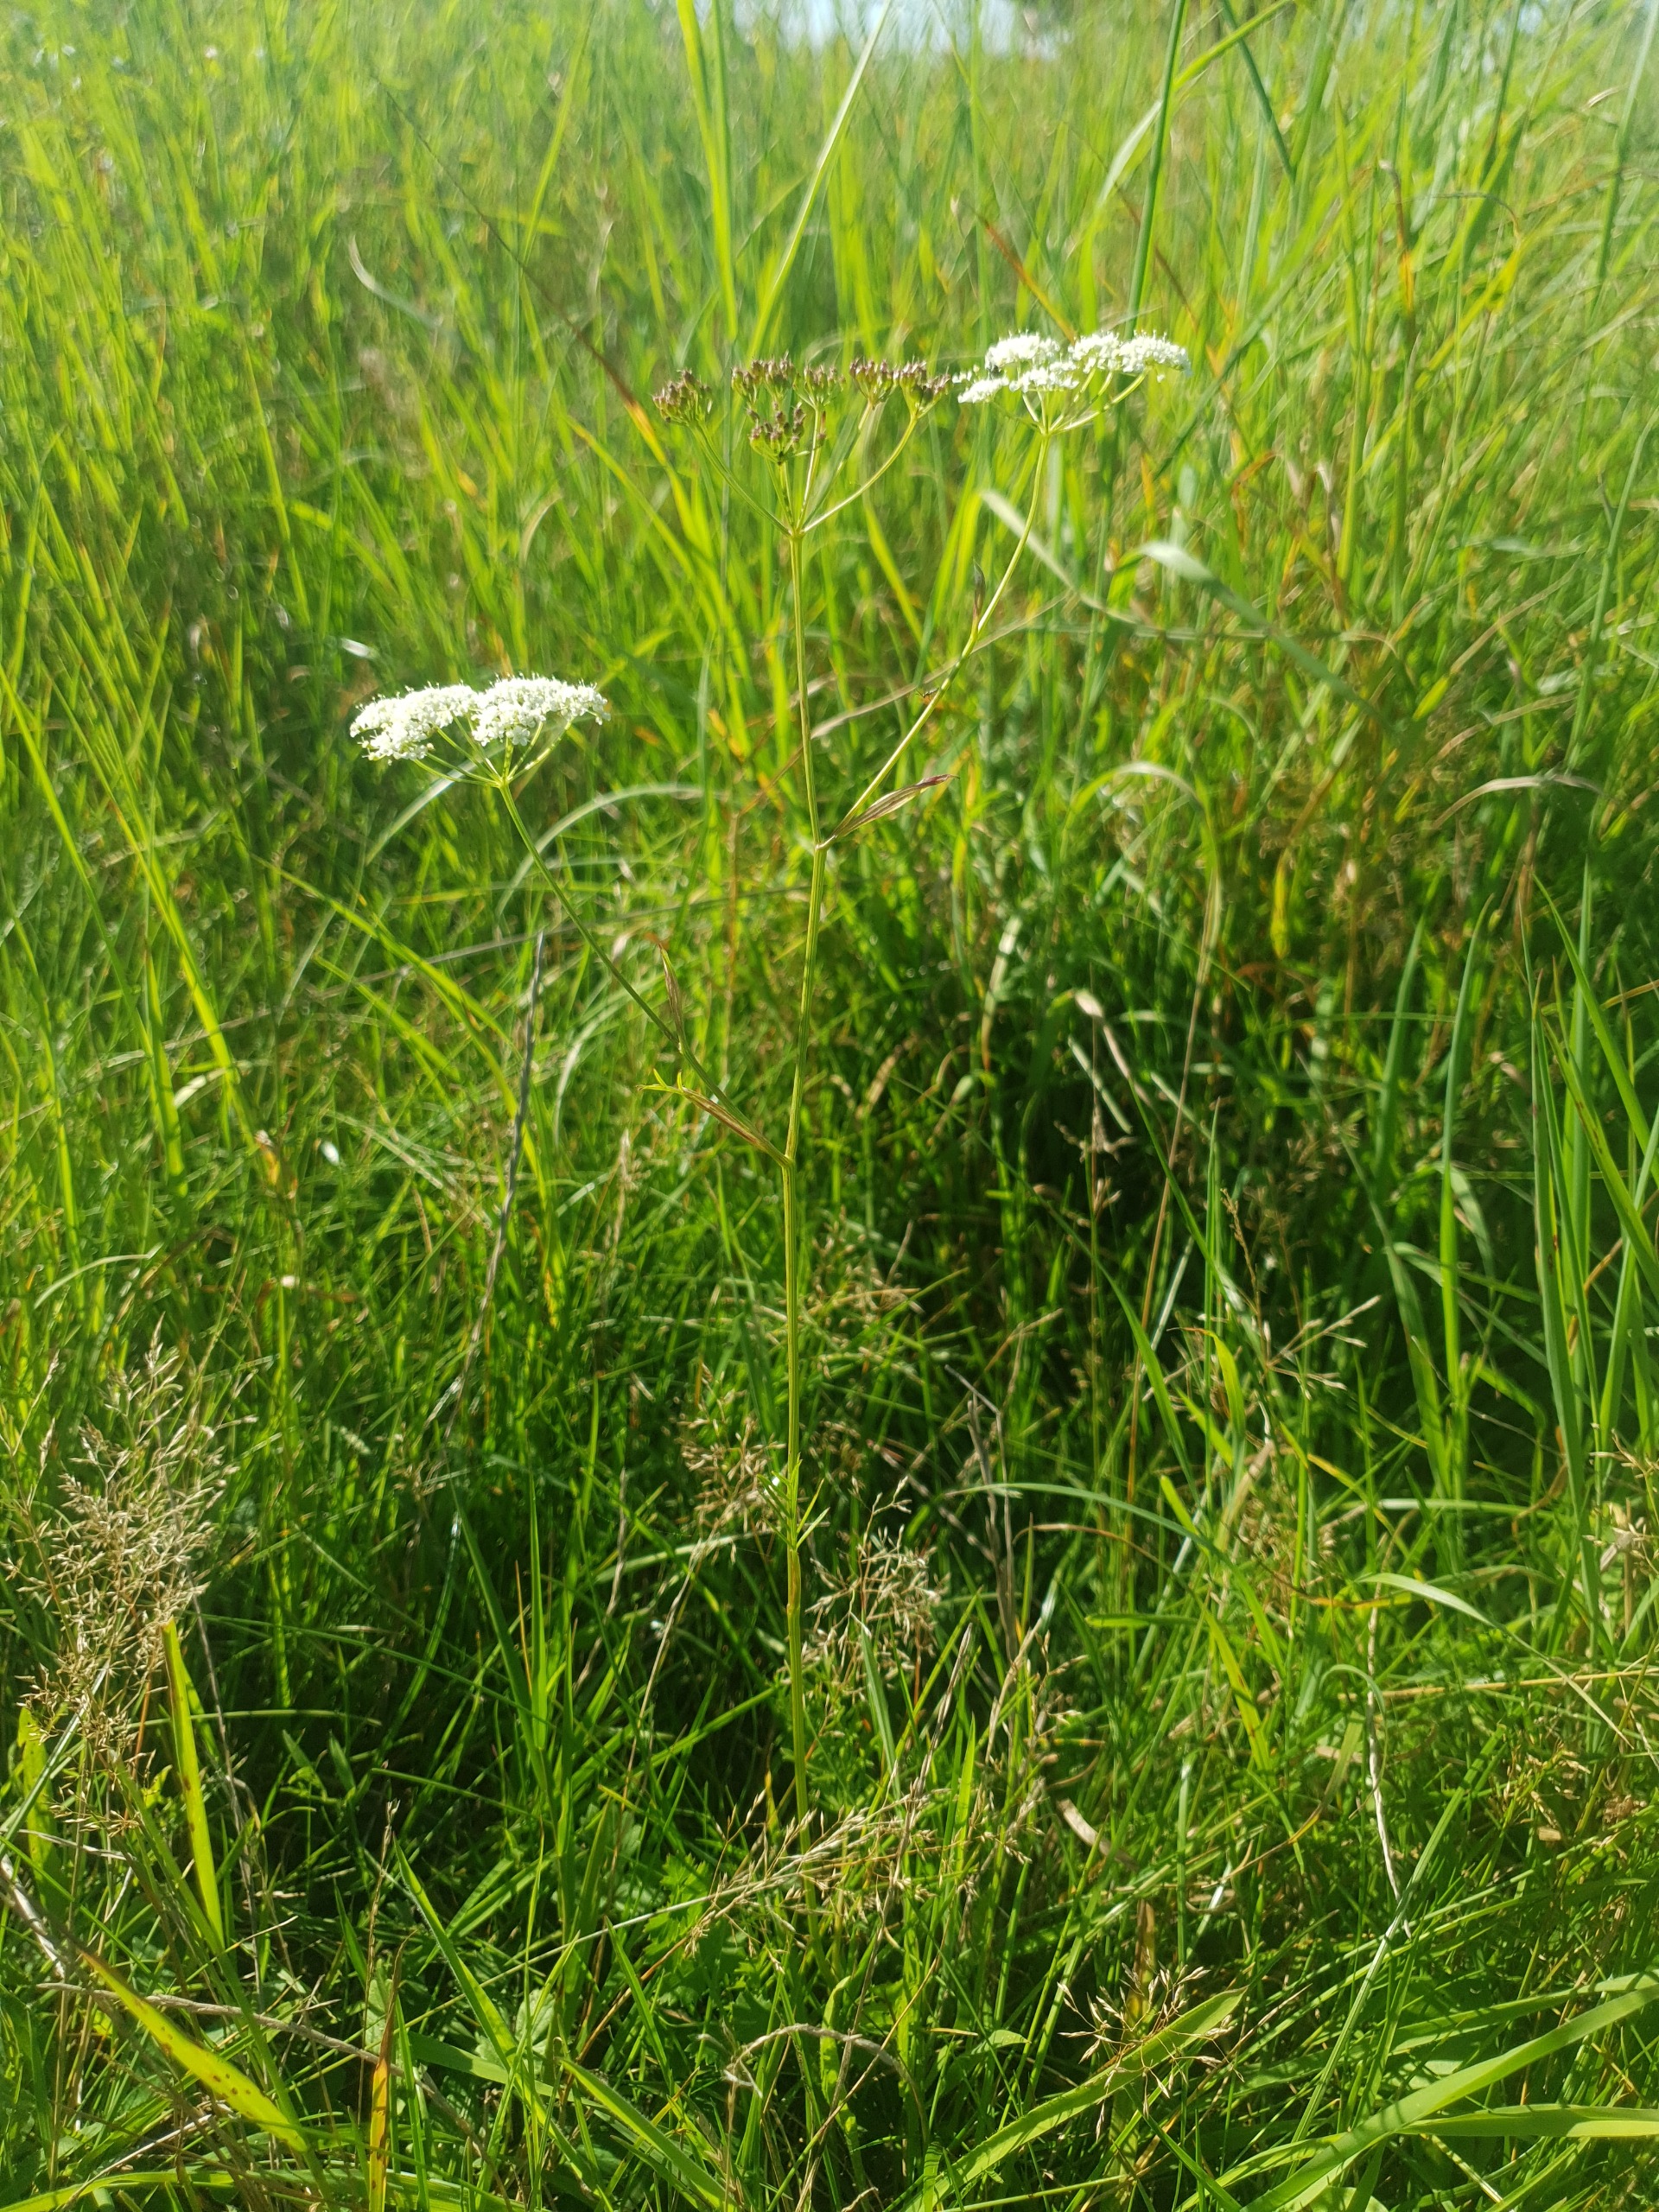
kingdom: Plantae
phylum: Tracheophyta
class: Magnoliopsida
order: Apiales
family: Apiaceae
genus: Pimpinella
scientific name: Pimpinella saxifraga
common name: Almindelig pimpinelle
